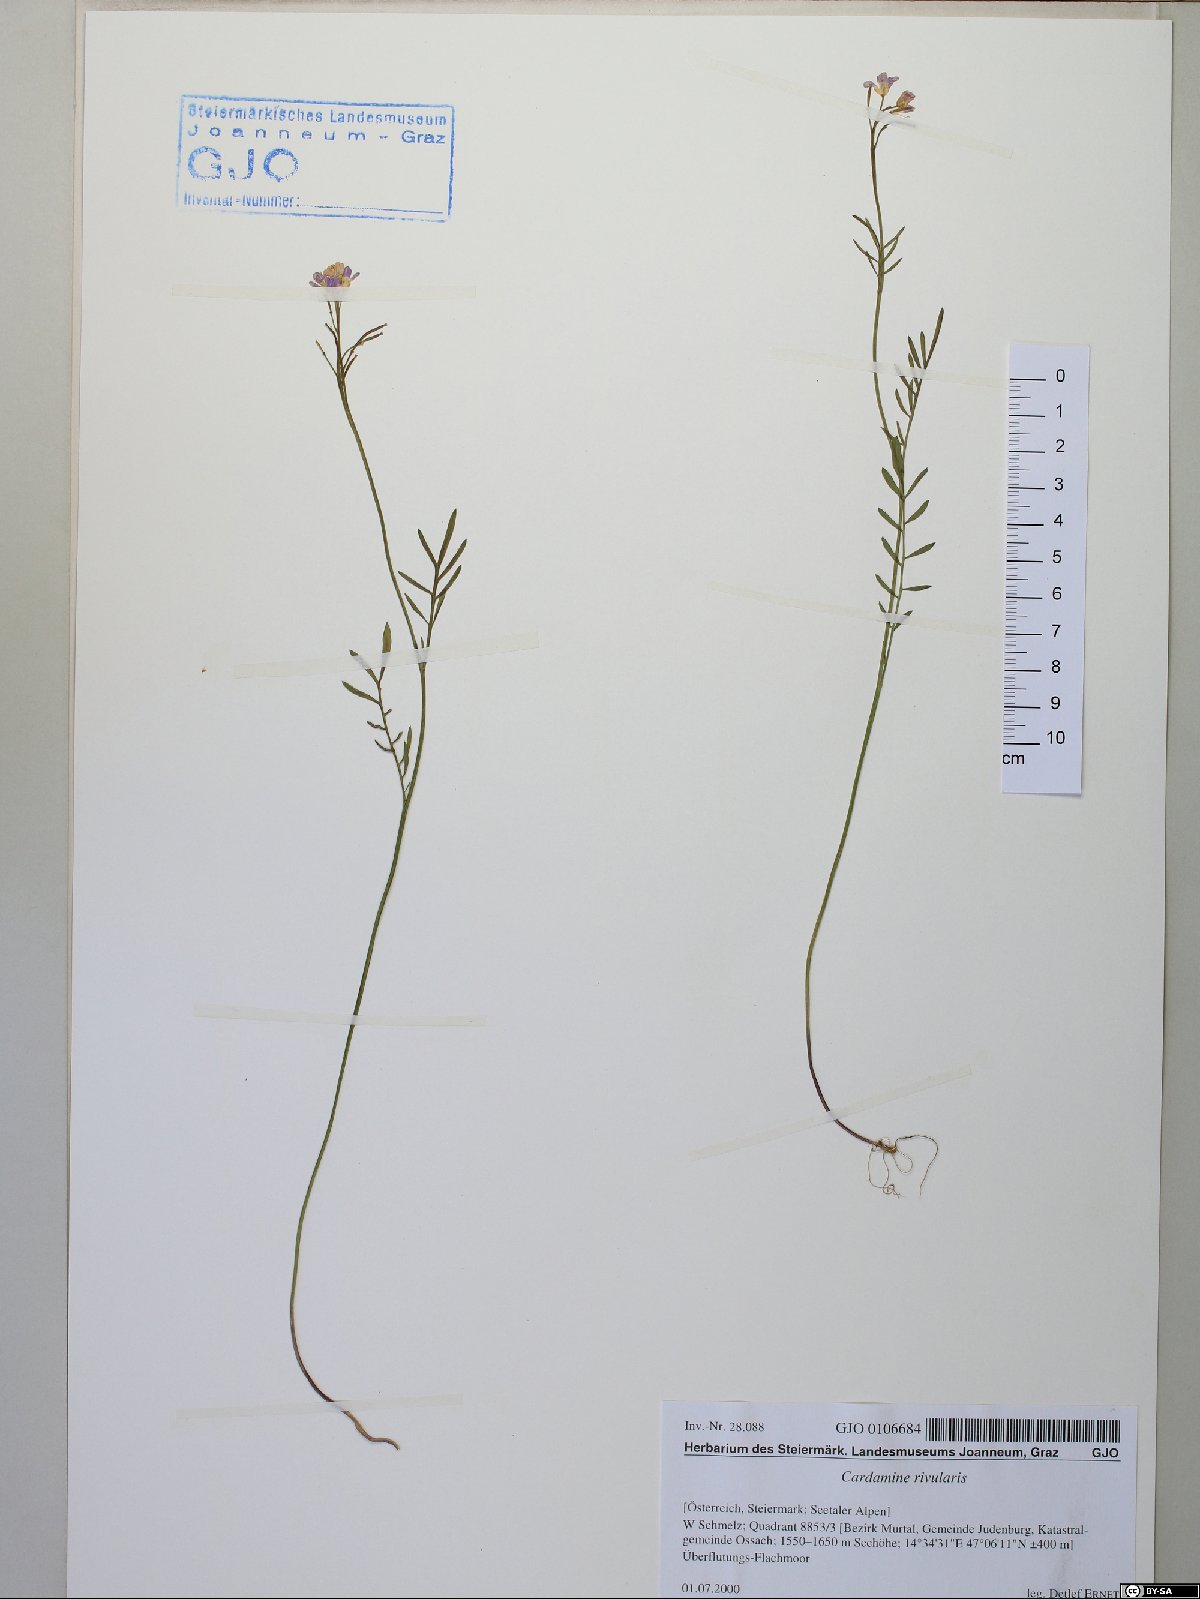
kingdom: Plantae
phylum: Tracheophyta
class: Magnoliopsida
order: Brassicales
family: Brassicaceae
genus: Cardamine
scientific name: Cardamine pratensis
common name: Cuckoo flower
